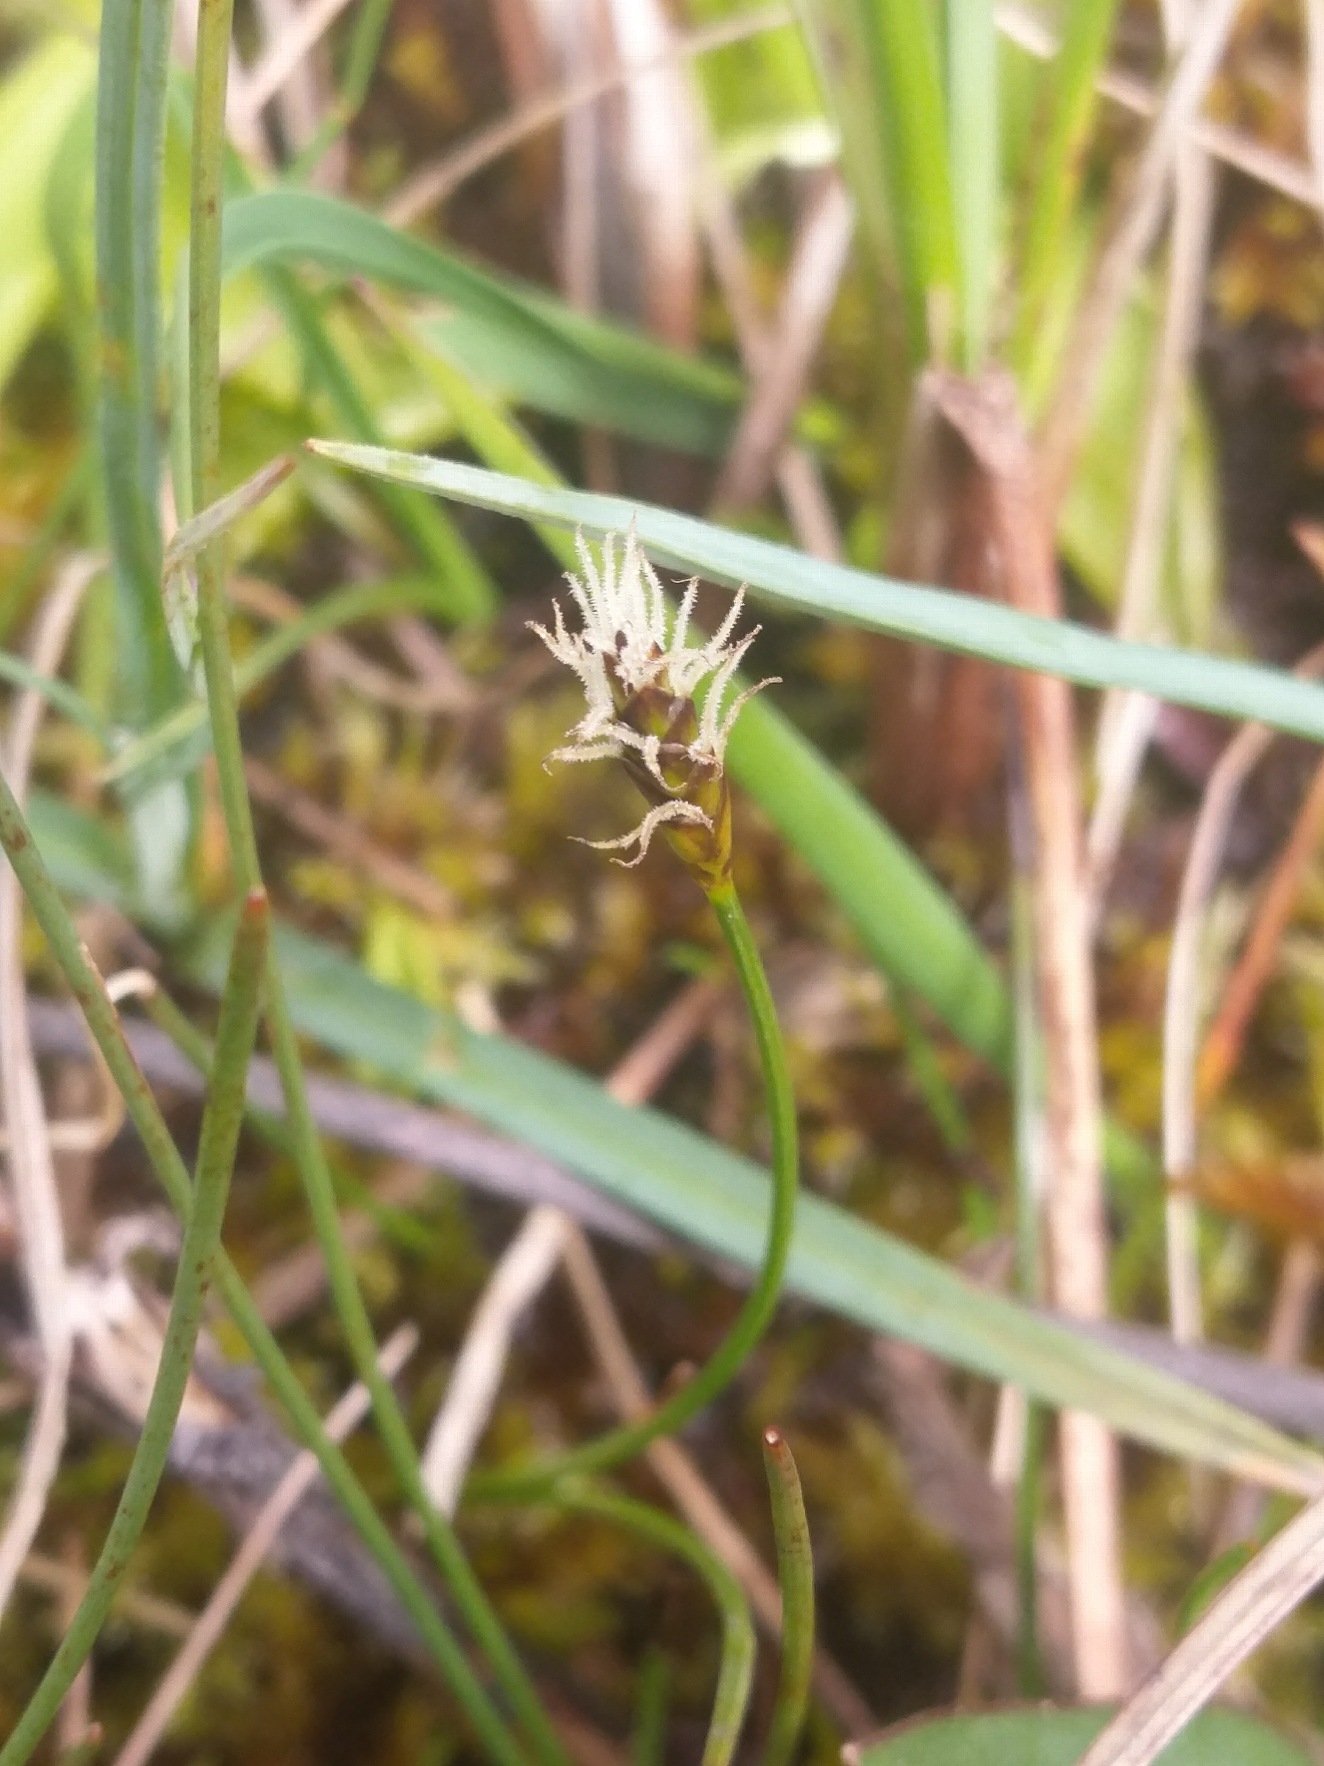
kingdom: Plantae
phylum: Tracheophyta
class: Liliopsida
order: Poales
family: Cyperaceae
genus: Carex
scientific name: Carex dioica
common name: Tvebo star
